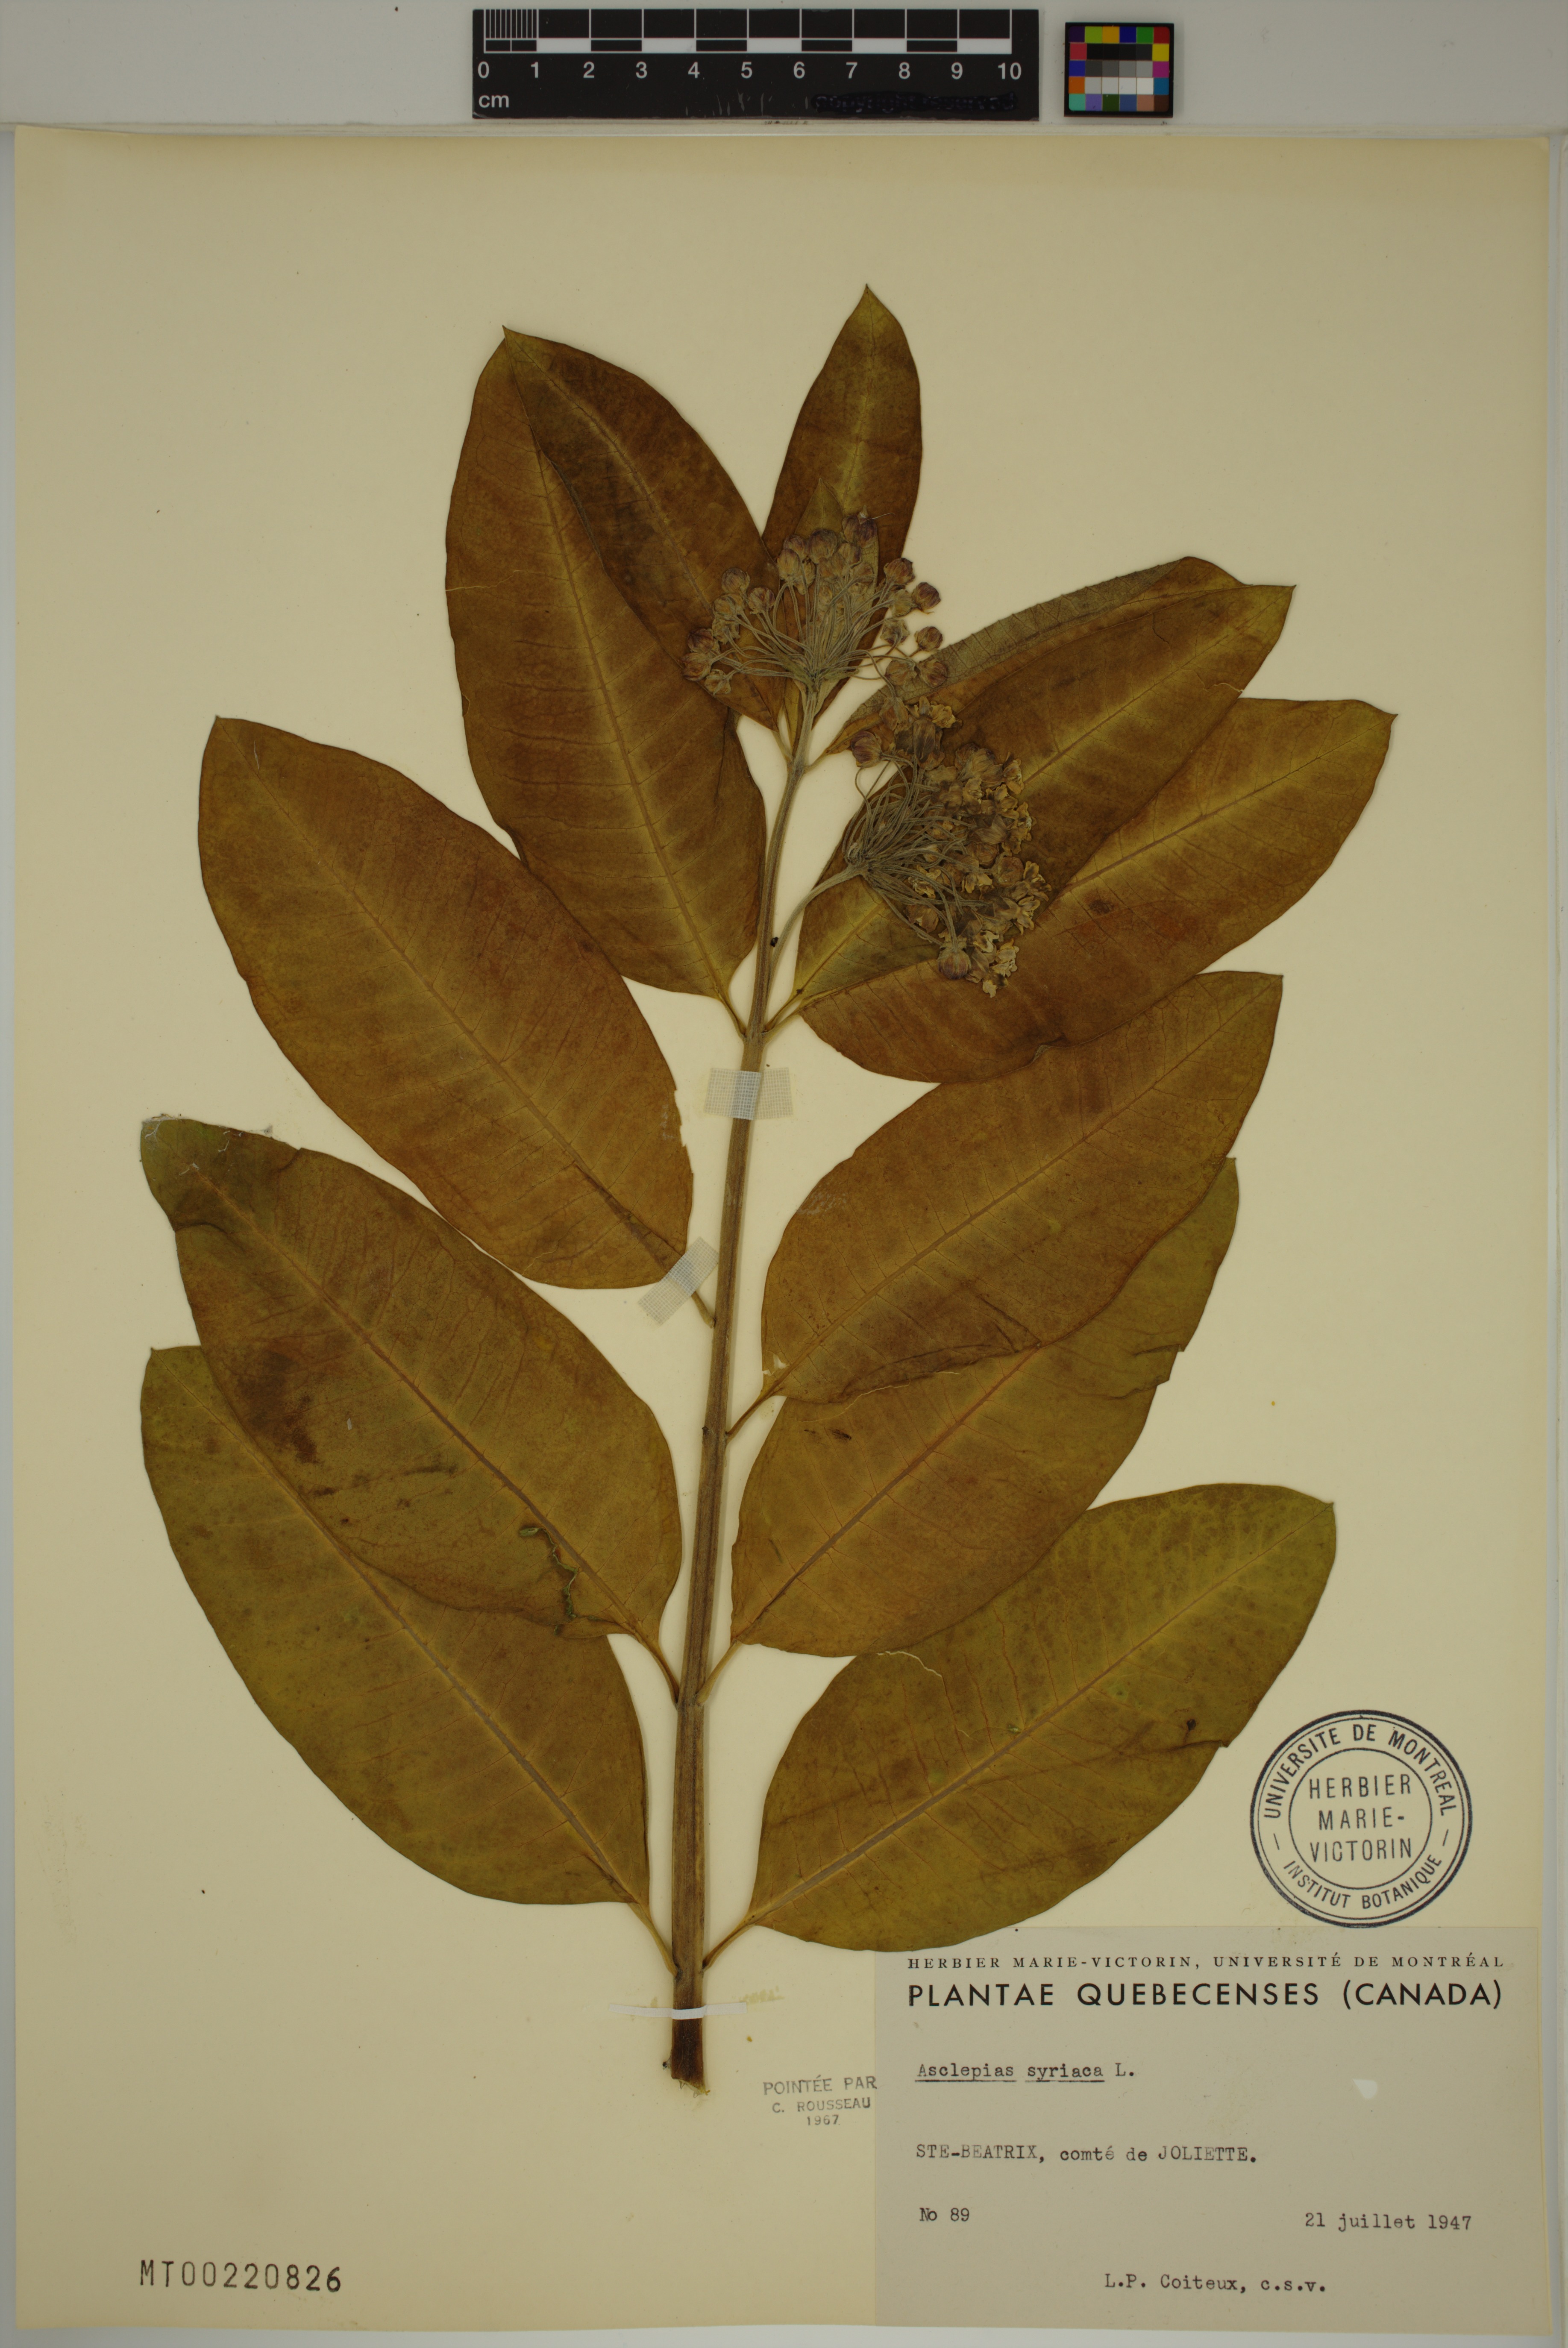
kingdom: Plantae
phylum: Tracheophyta
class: Magnoliopsida
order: Gentianales
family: Apocynaceae
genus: Asclepias
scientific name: Asclepias syriaca
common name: Common milkweed
